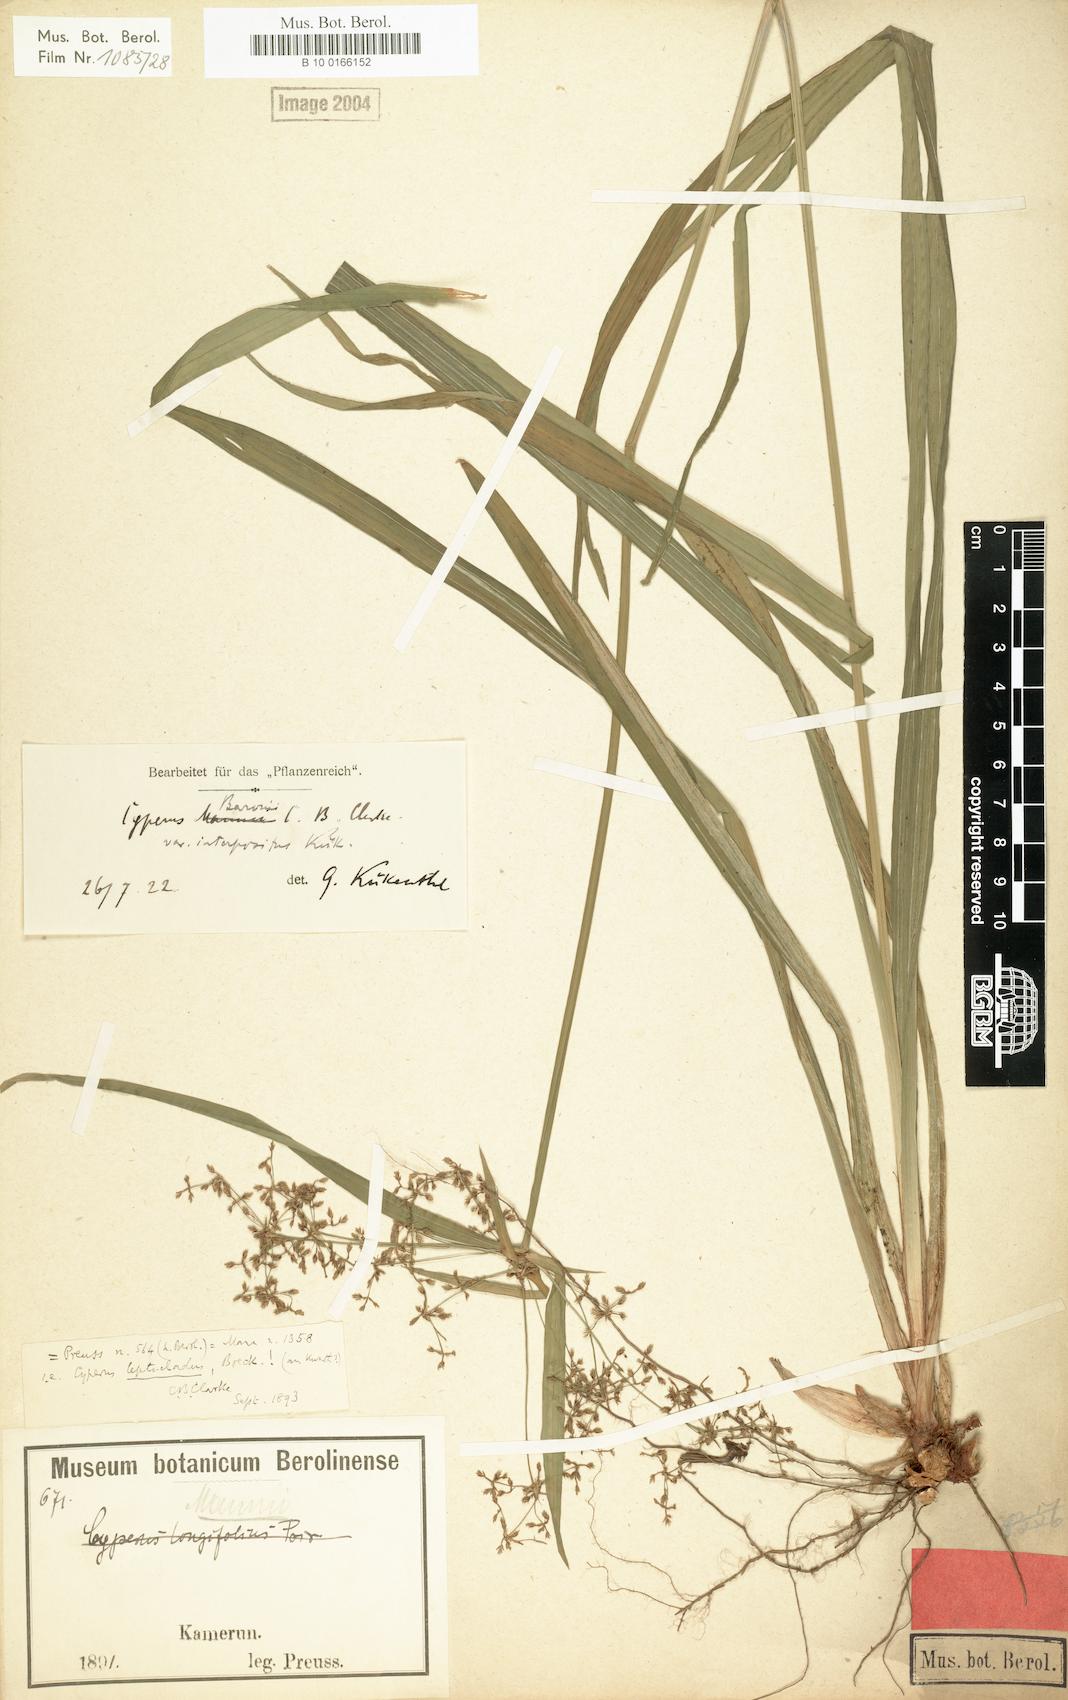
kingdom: Plantae
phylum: Tracheophyta
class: Liliopsida
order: Poales
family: Cyperaceae
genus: Cyperus
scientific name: Cyperus baronii
